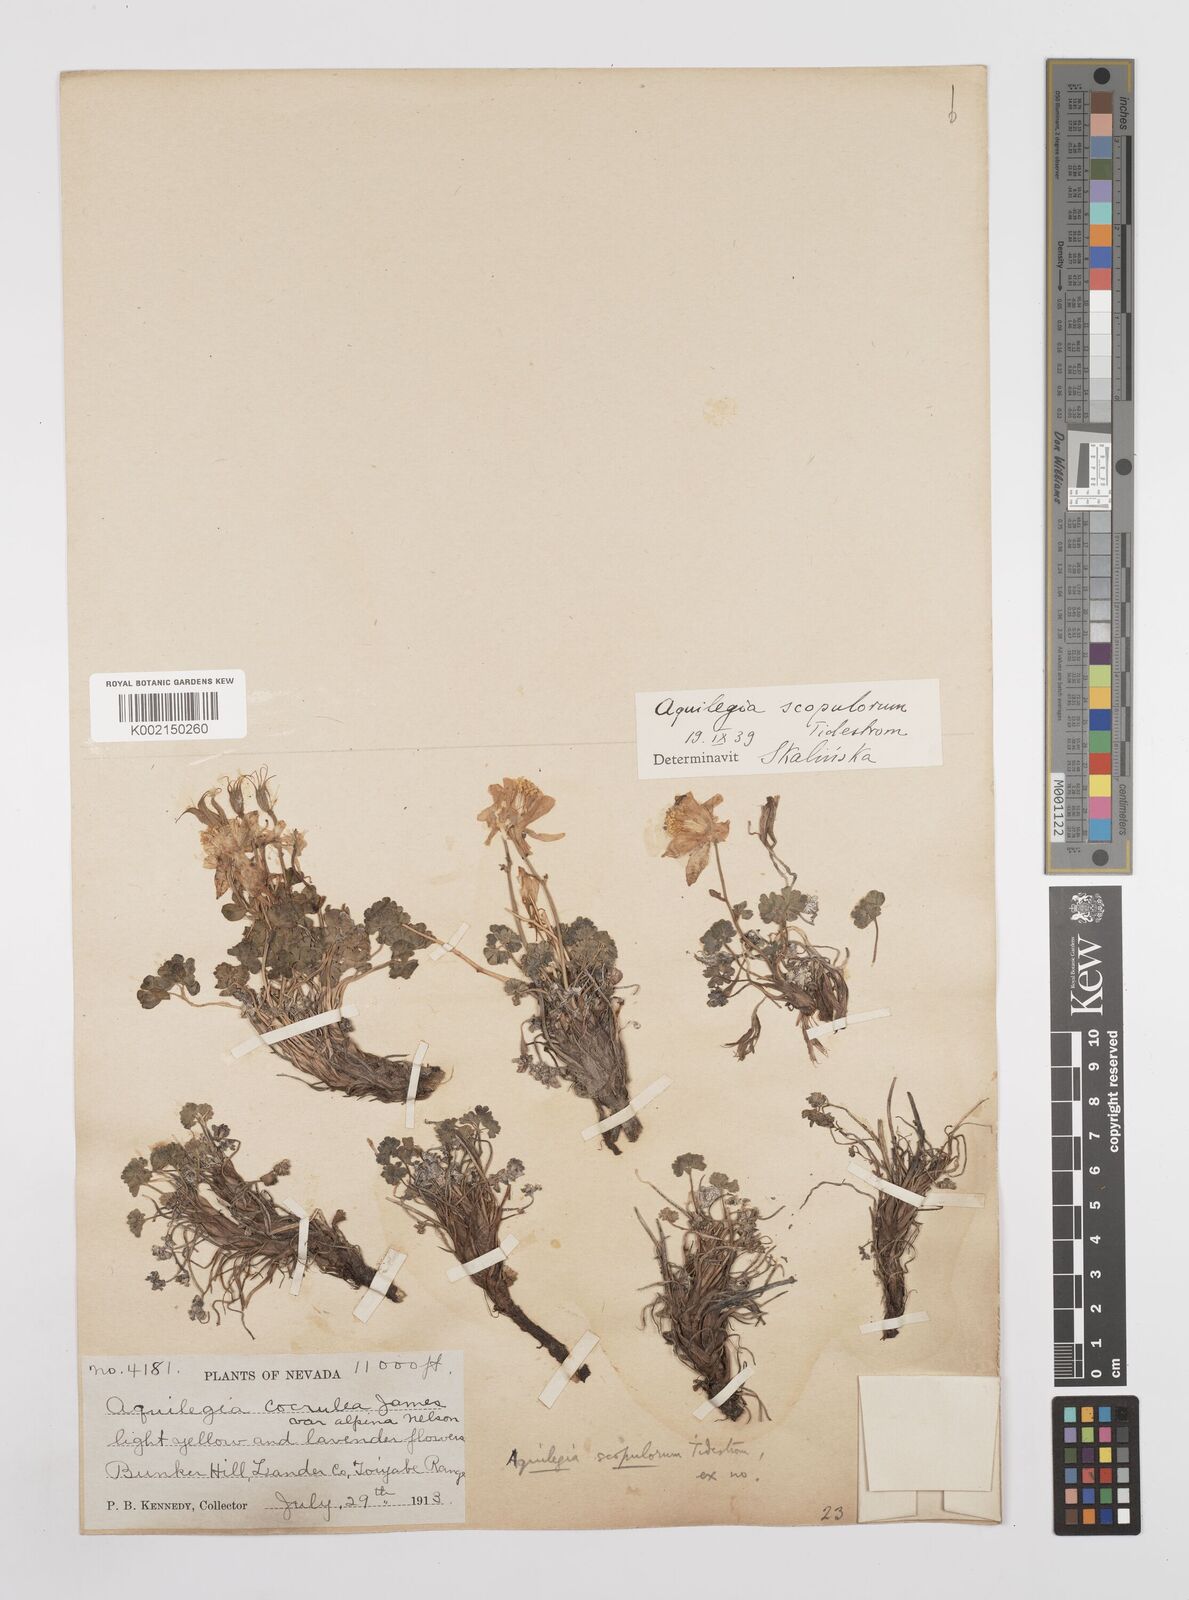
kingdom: Plantae
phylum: Tracheophyta
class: Magnoliopsida
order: Ranunculales
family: Ranunculaceae
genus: Aquilegia
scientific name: Aquilegia scopulorum
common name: Rock columbine
